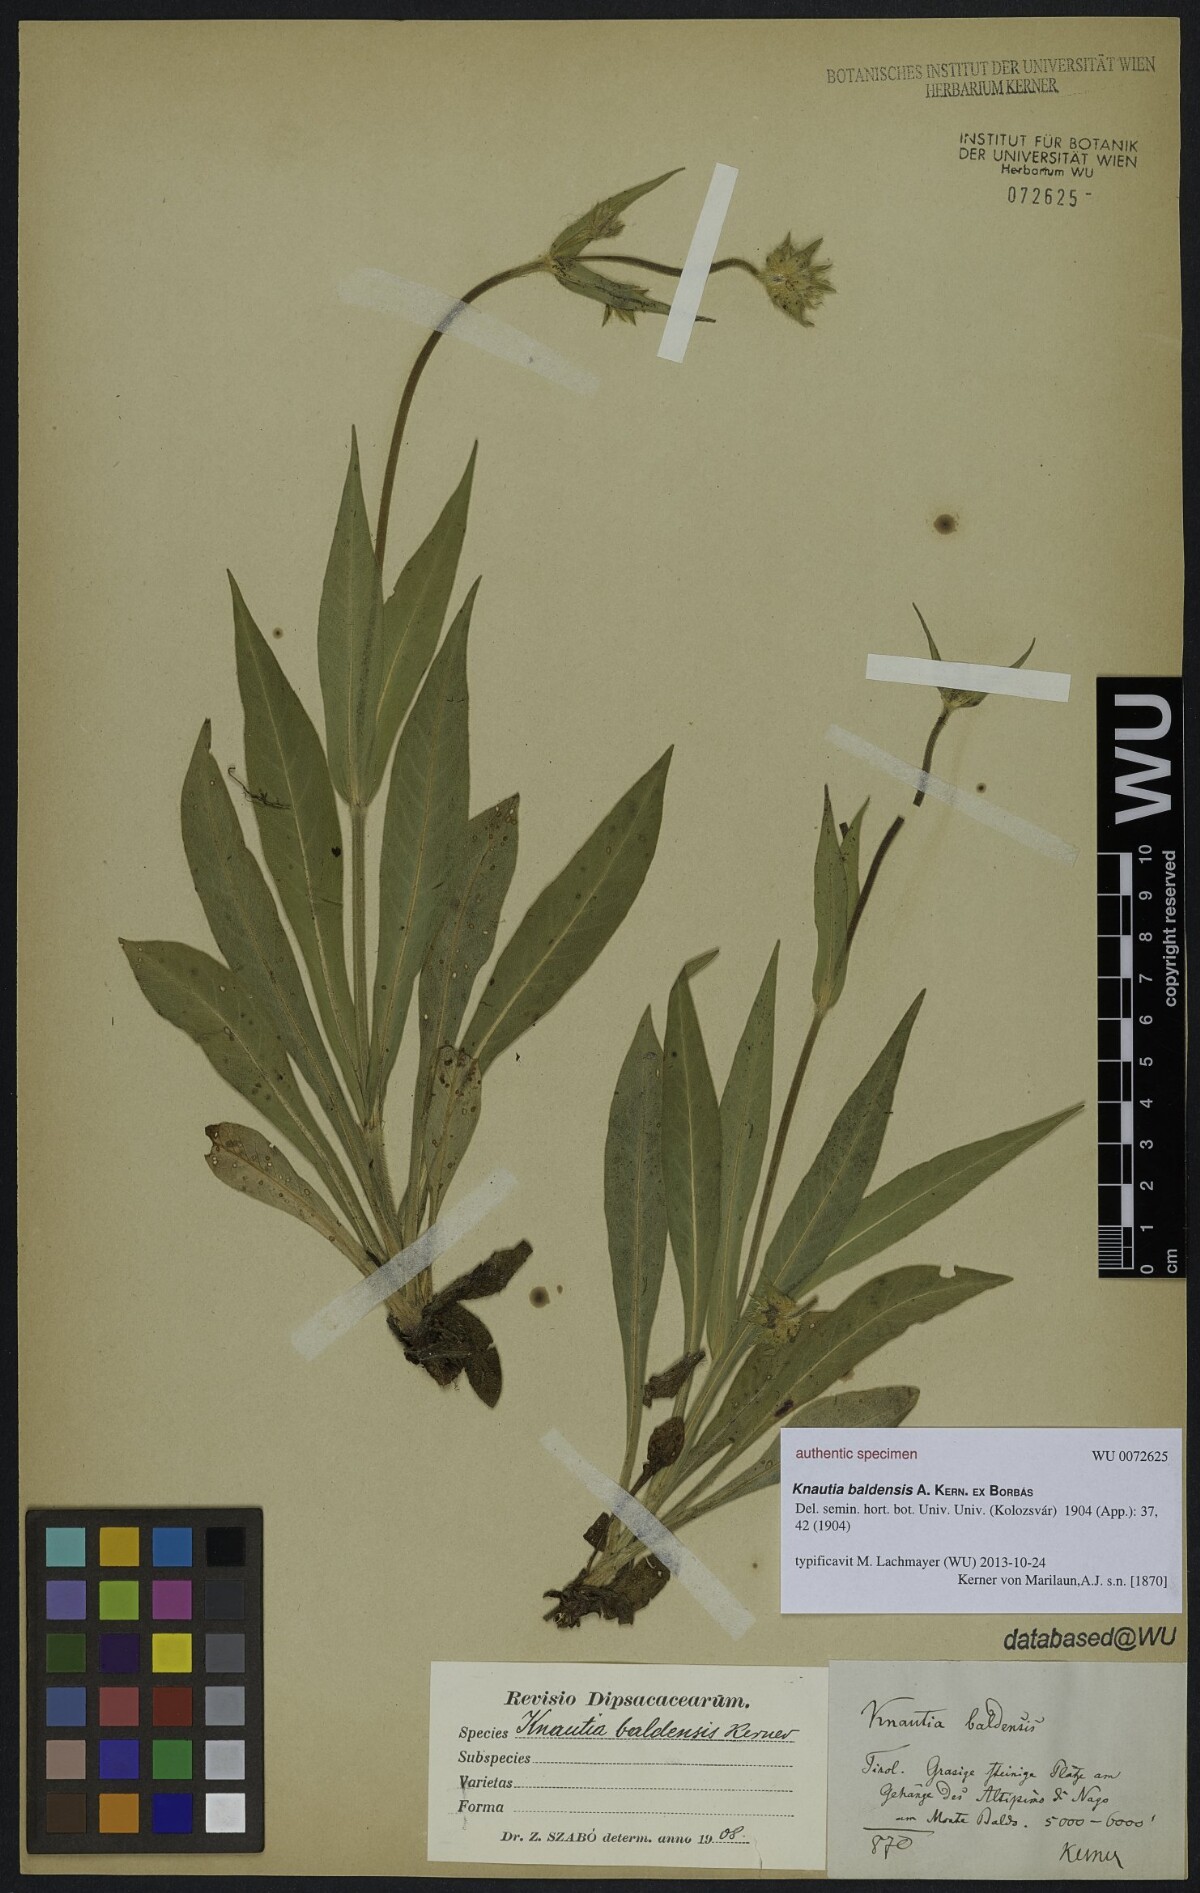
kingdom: Plantae
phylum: Tracheophyta
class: Magnoliopsida
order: Dipsacales
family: Caprifoliaceae
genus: Knautia
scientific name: Knautia baldensis
